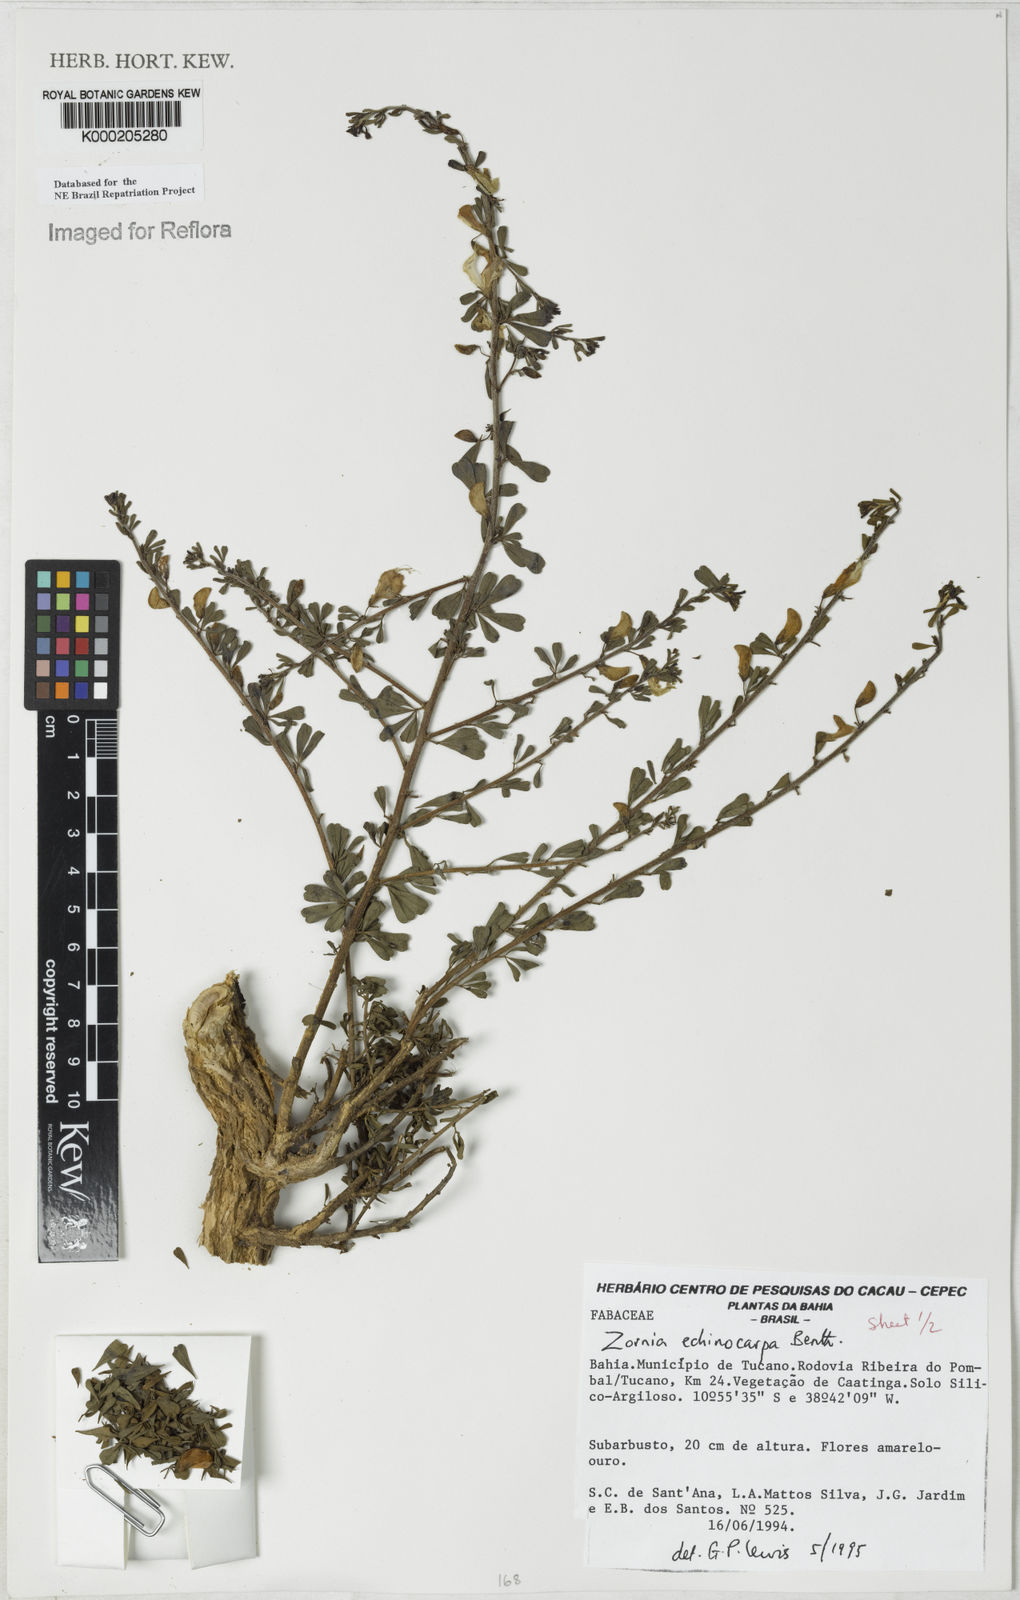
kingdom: Plantae
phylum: Tracheophyta
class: Magnoliopsida
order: Fabales
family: Fabaceae
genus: Zornia
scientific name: Zornia echinocarpa
